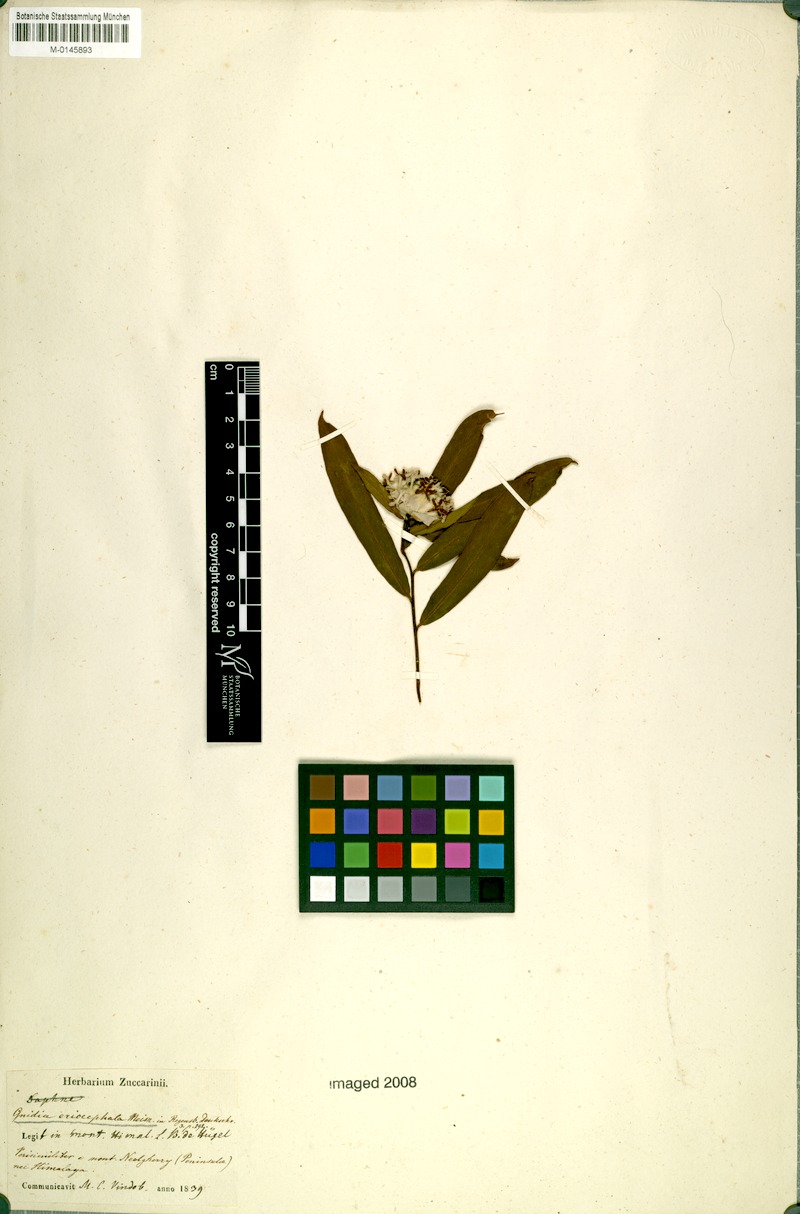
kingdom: Plantae
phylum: Tracheophyta
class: Magnoliopsida
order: Malvales
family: Thymelaeaceae
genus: Gnidia
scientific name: Gnidia glauca
